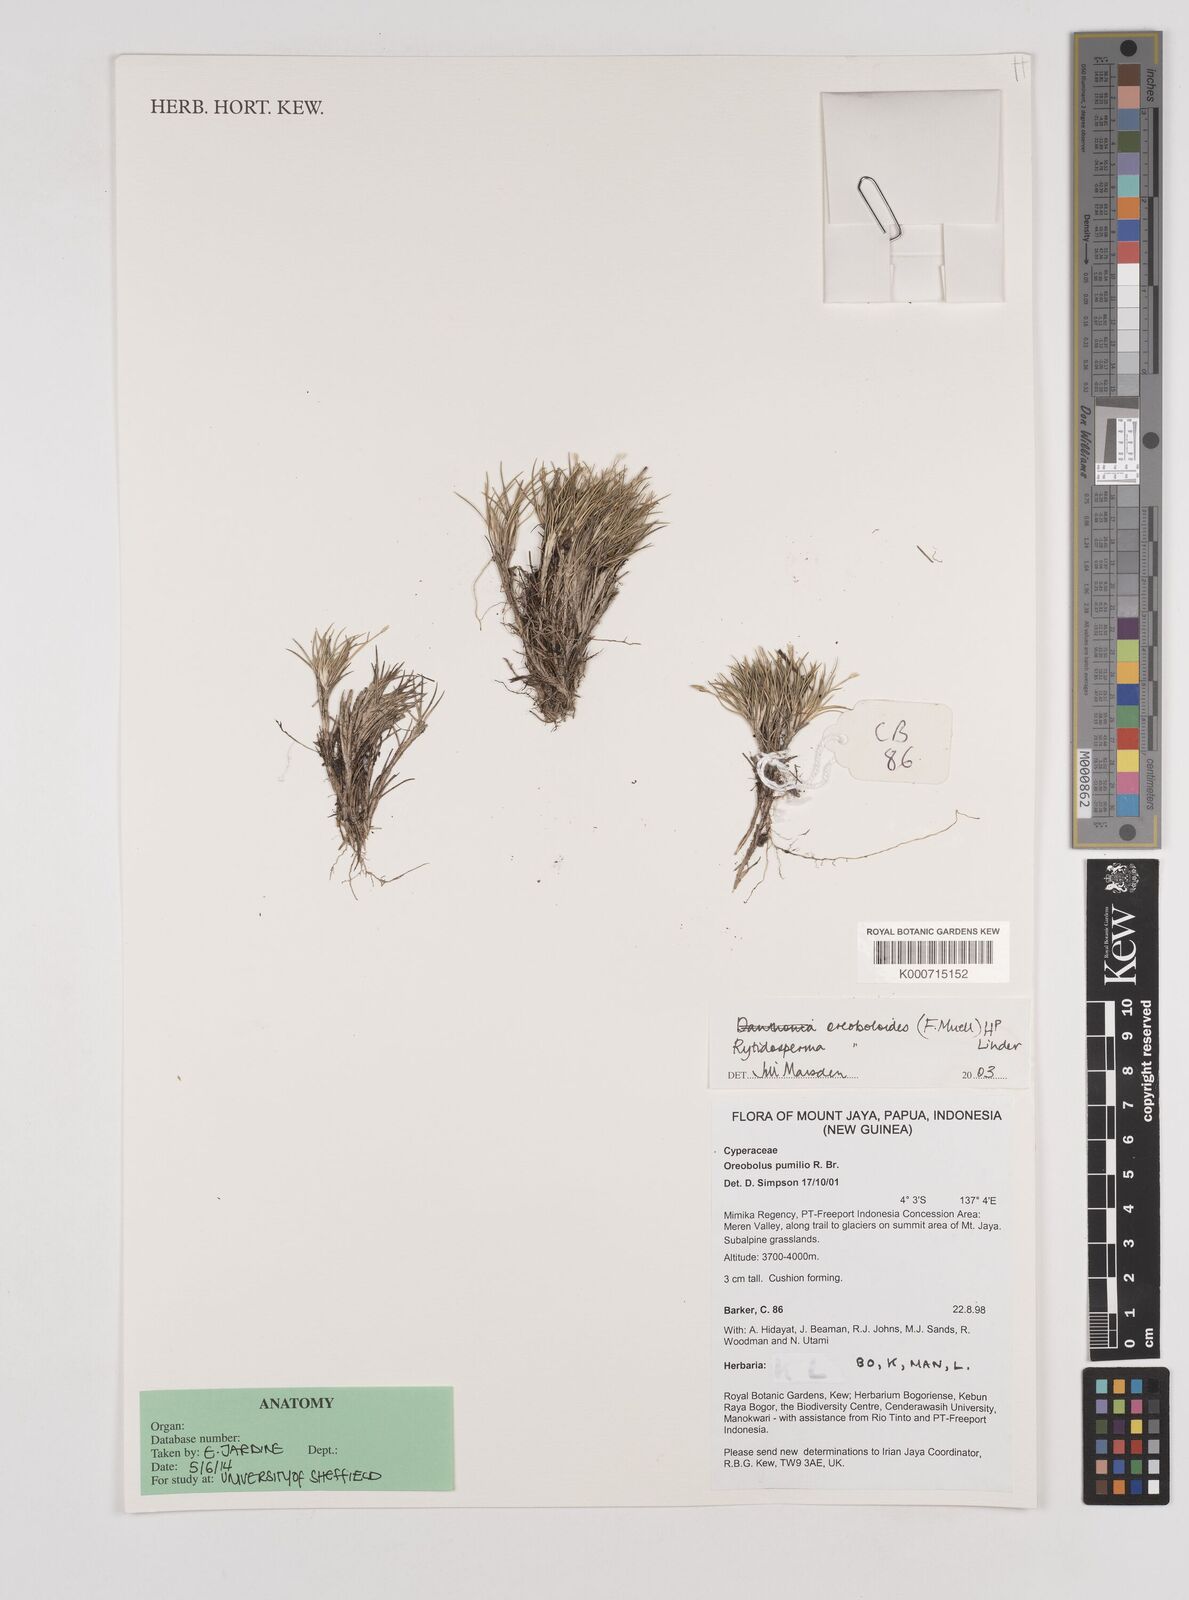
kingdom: Plantae
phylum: Tracheophyta
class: Liliopsida
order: Poales
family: Poaceae
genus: Rytidosperma
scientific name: Rytidosperma oreoboloides
